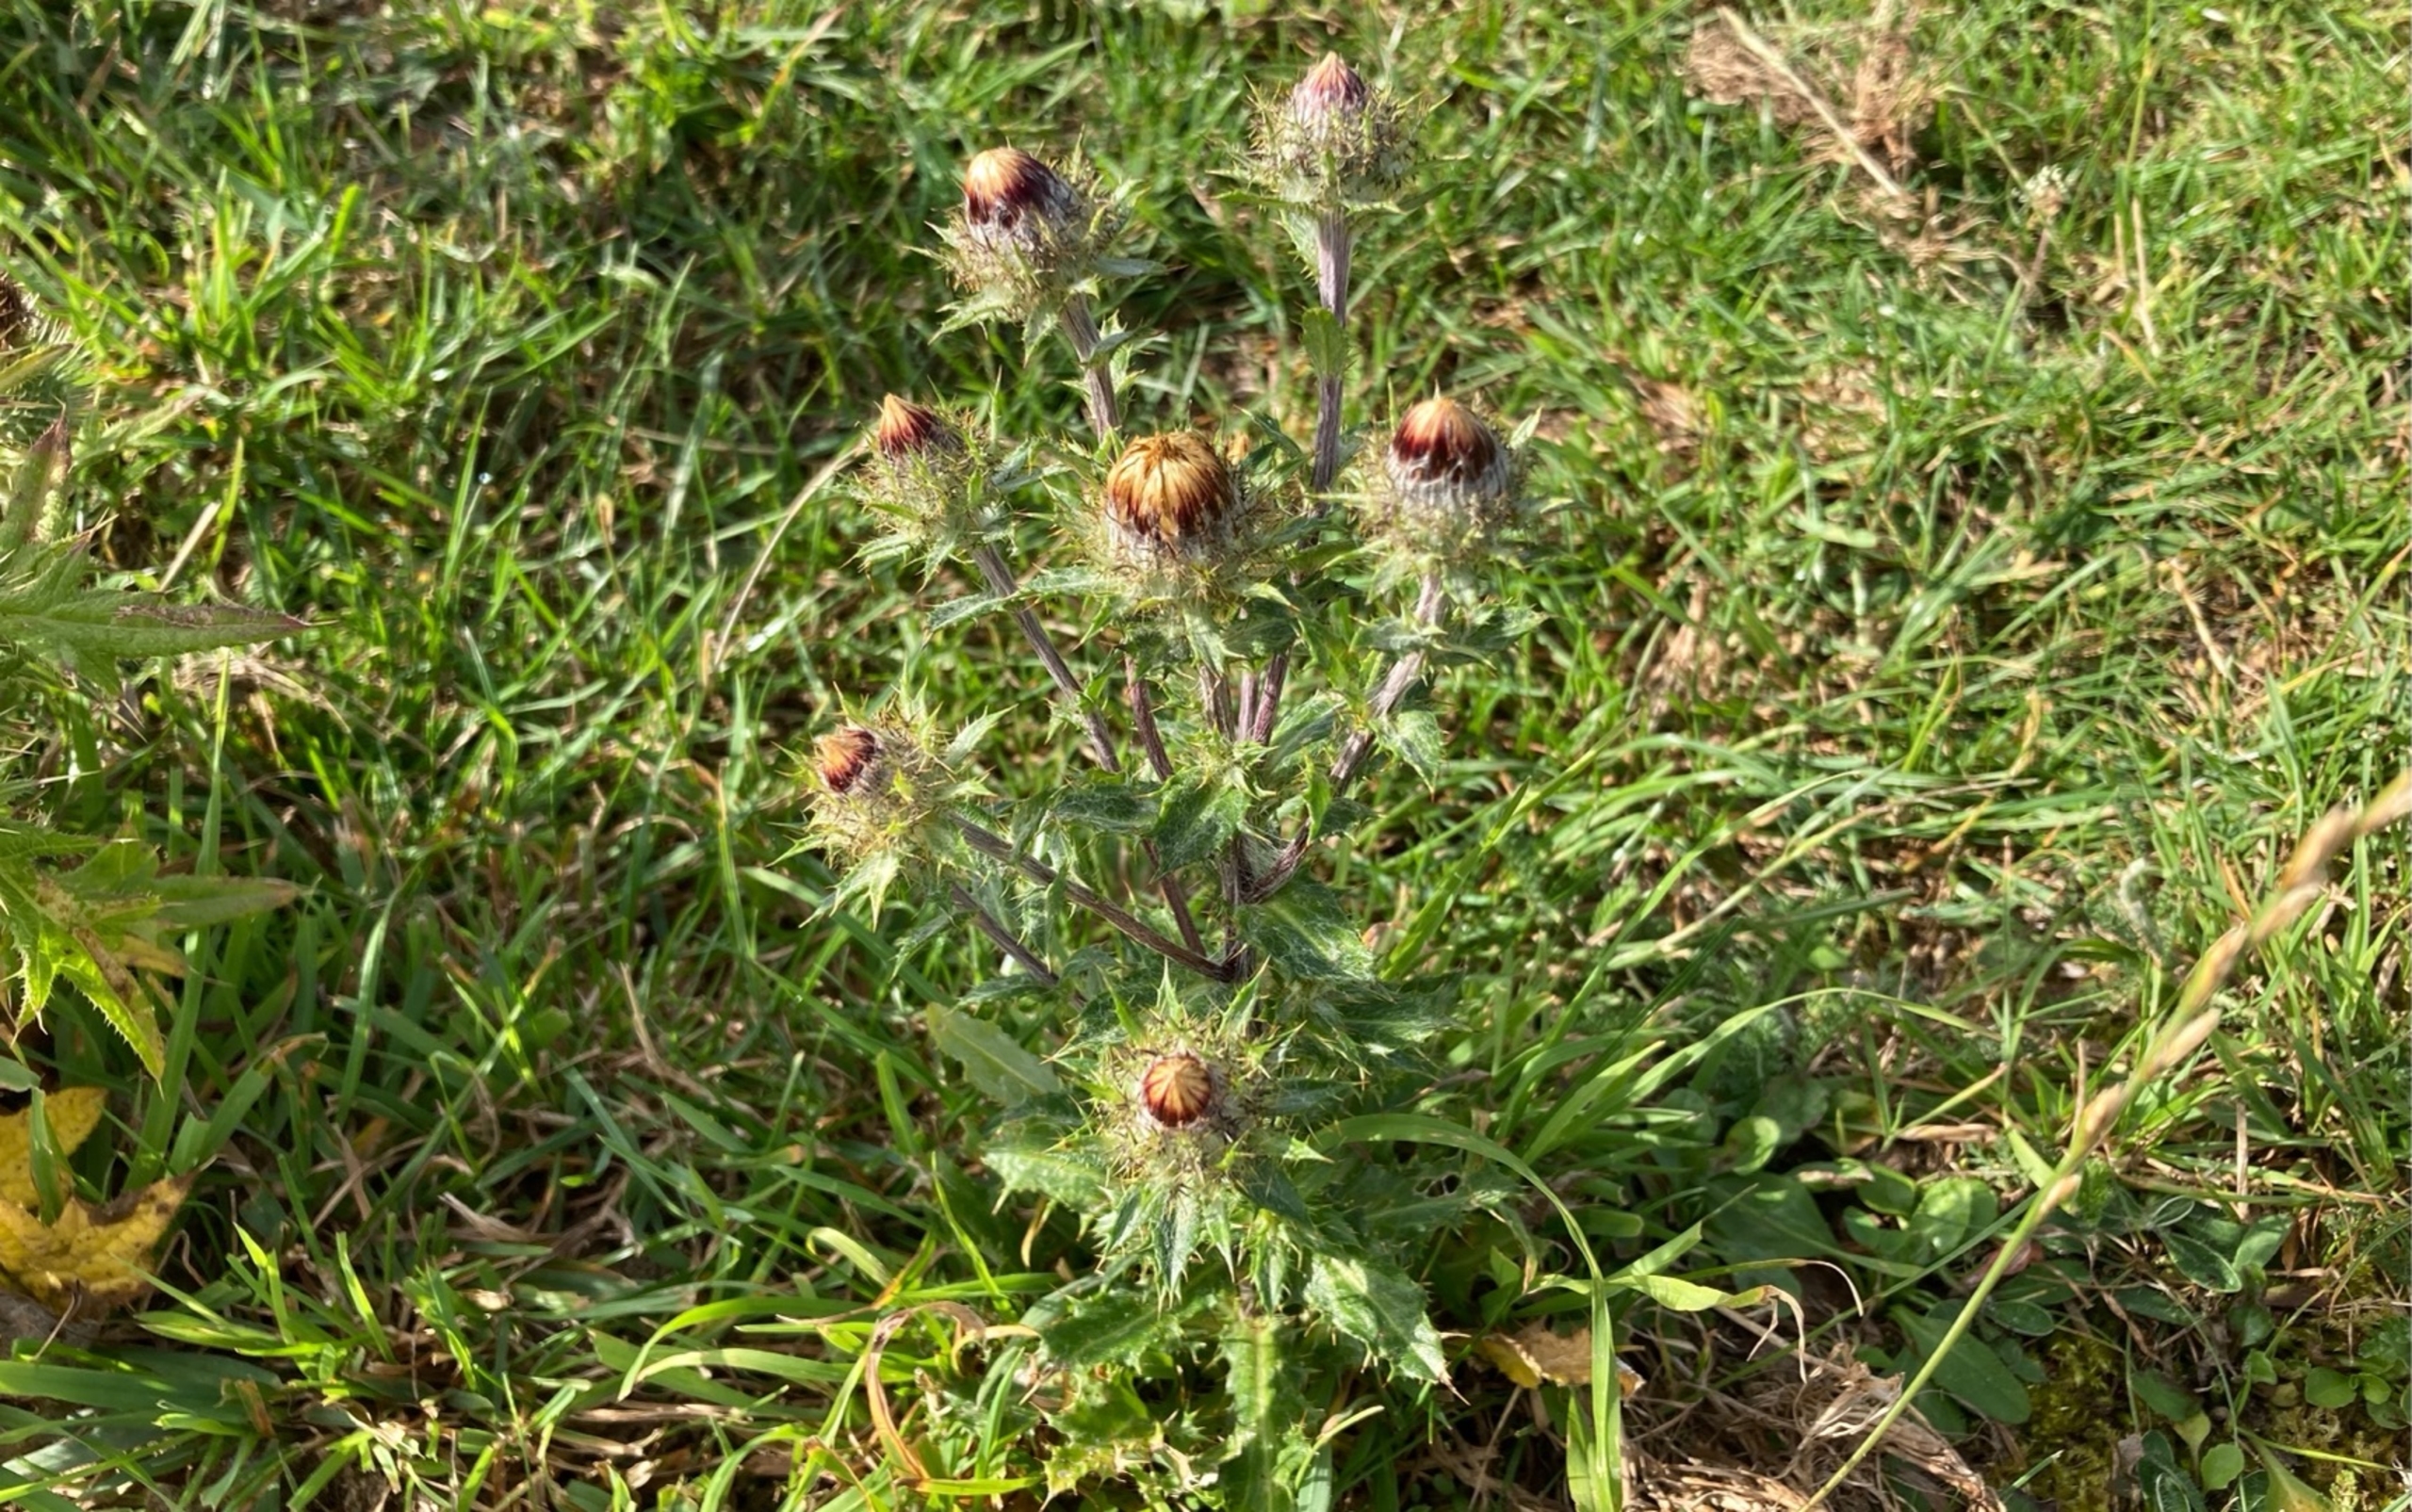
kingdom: Plantae
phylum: Tracheophyta
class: Magnoliopsida
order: Asterales
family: Asteraceae
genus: Carlina
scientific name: Carlina vulgaris
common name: Bakketidsel
